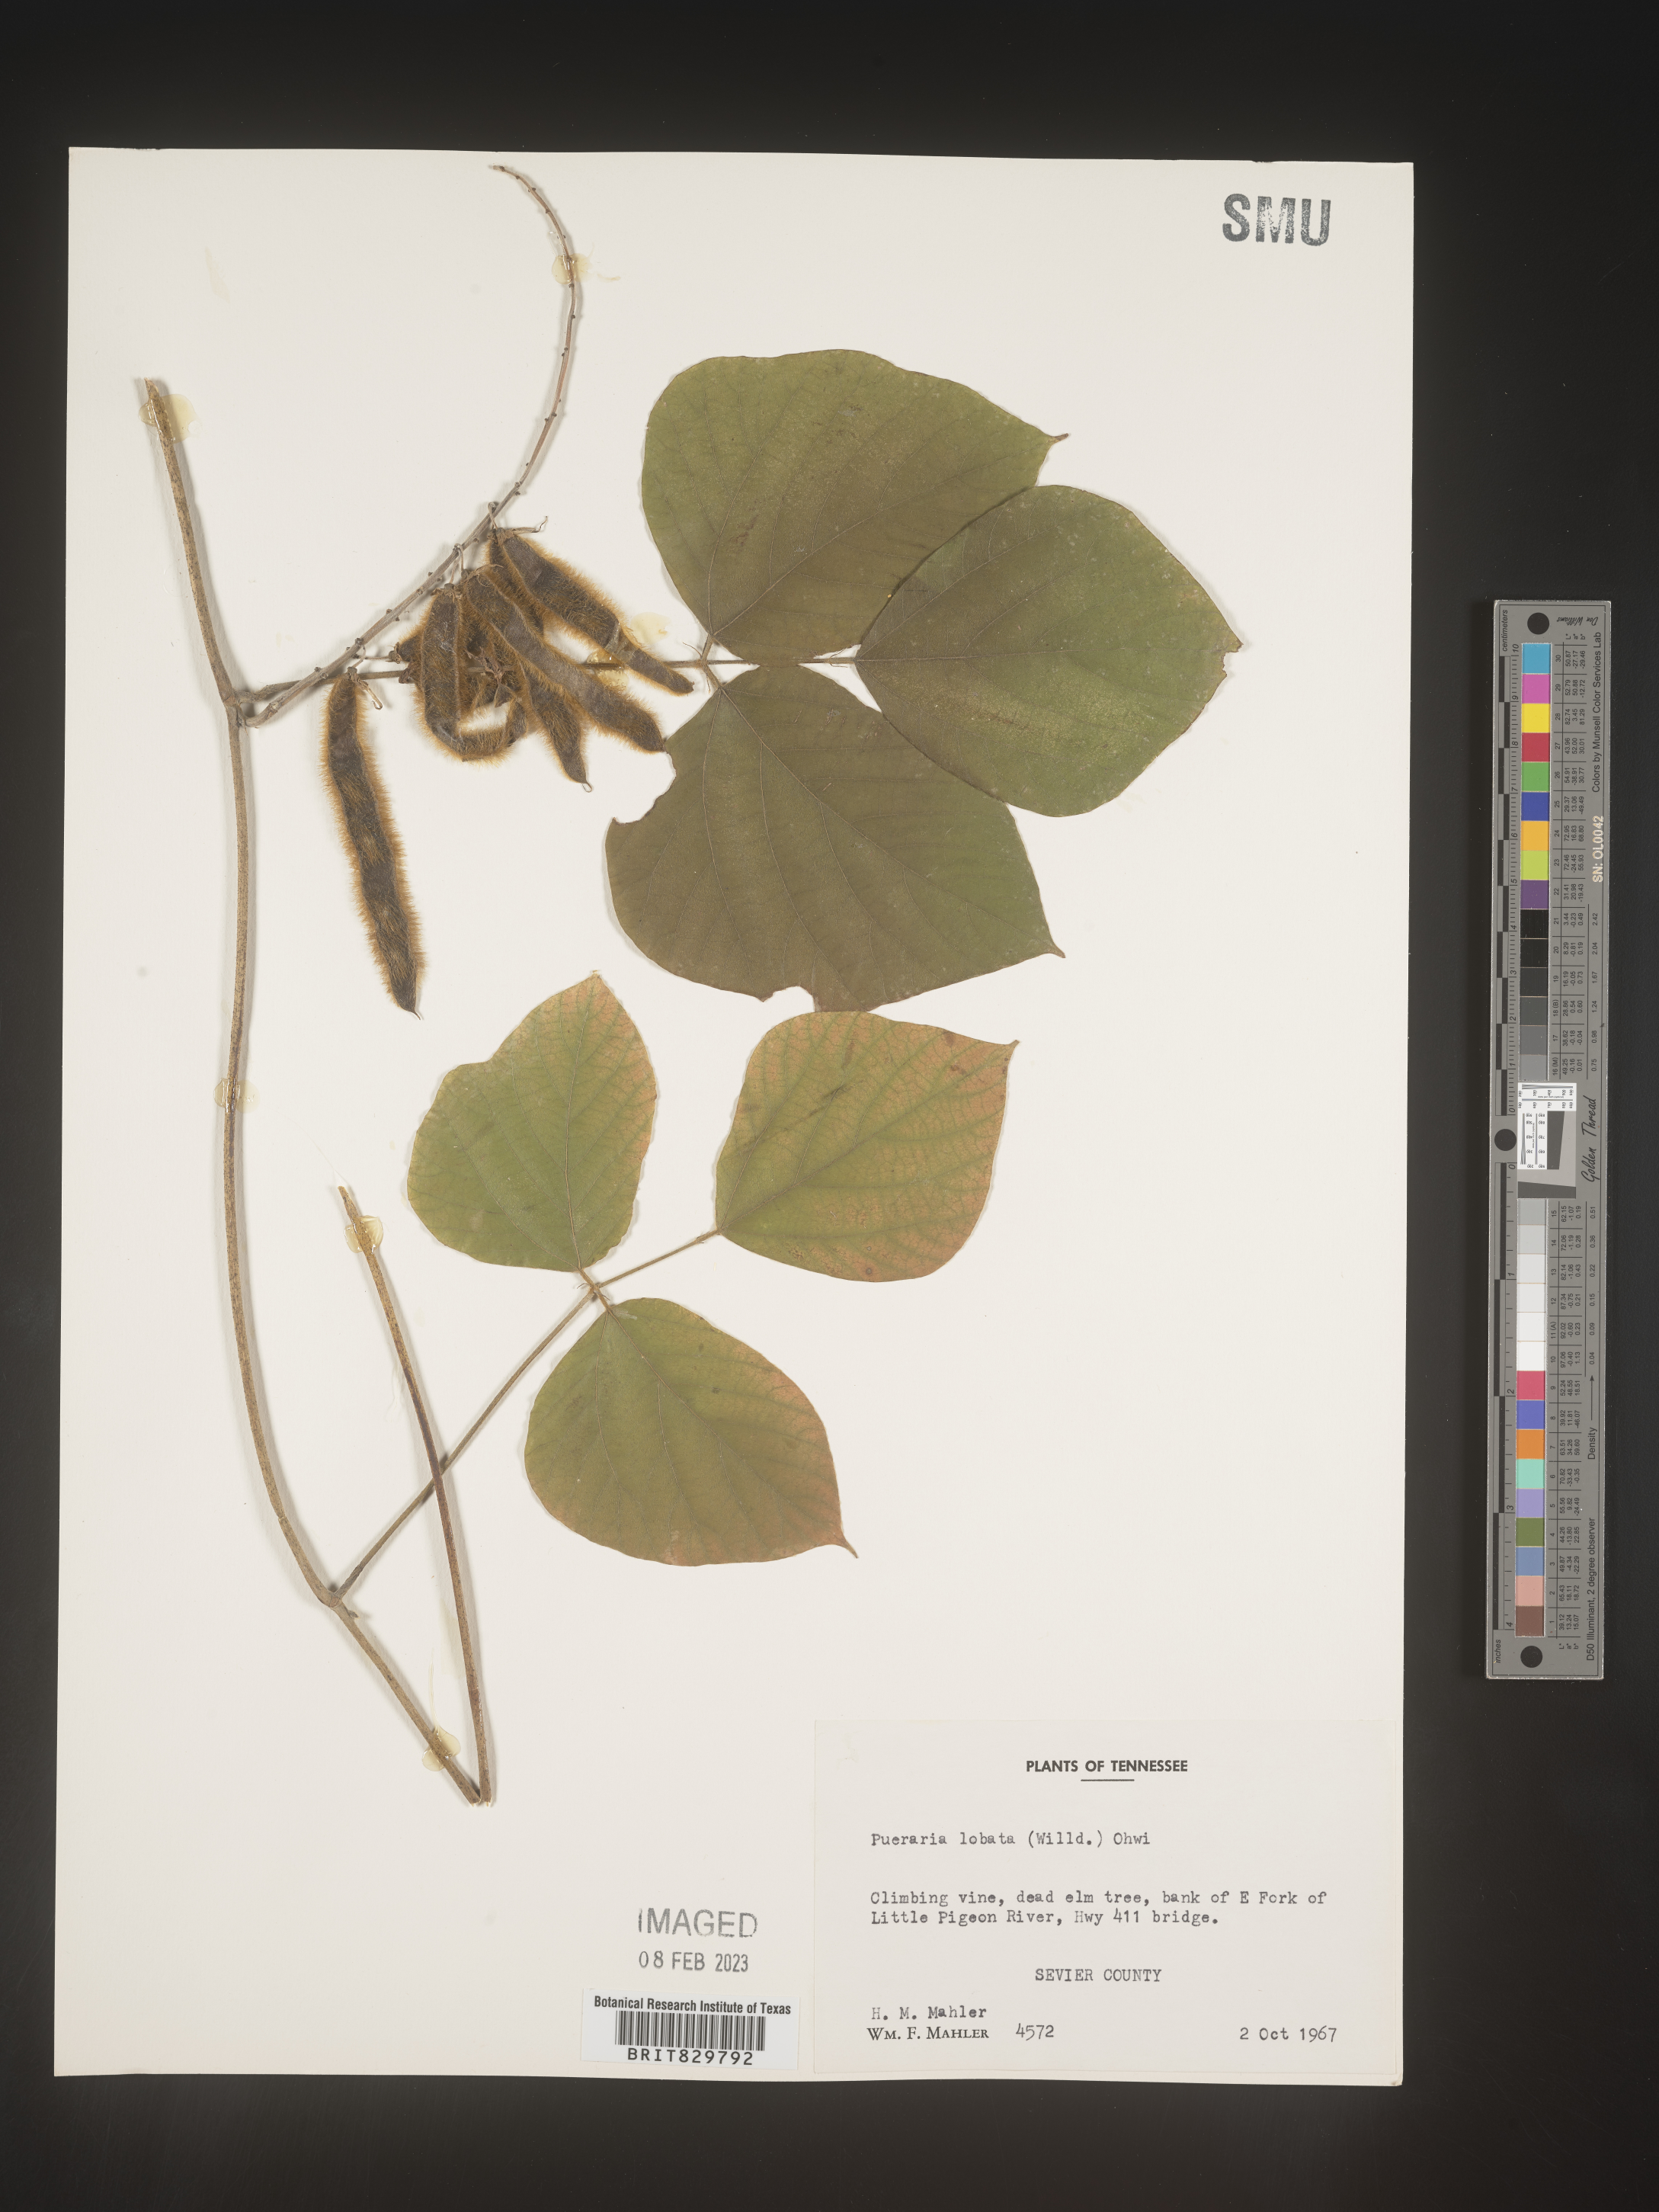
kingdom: Plantae
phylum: Tracheophyta
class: Magnoliopsida
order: Fabales
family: Fabaceae
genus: Pueraria
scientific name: Pueraria montana
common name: Kudzu
